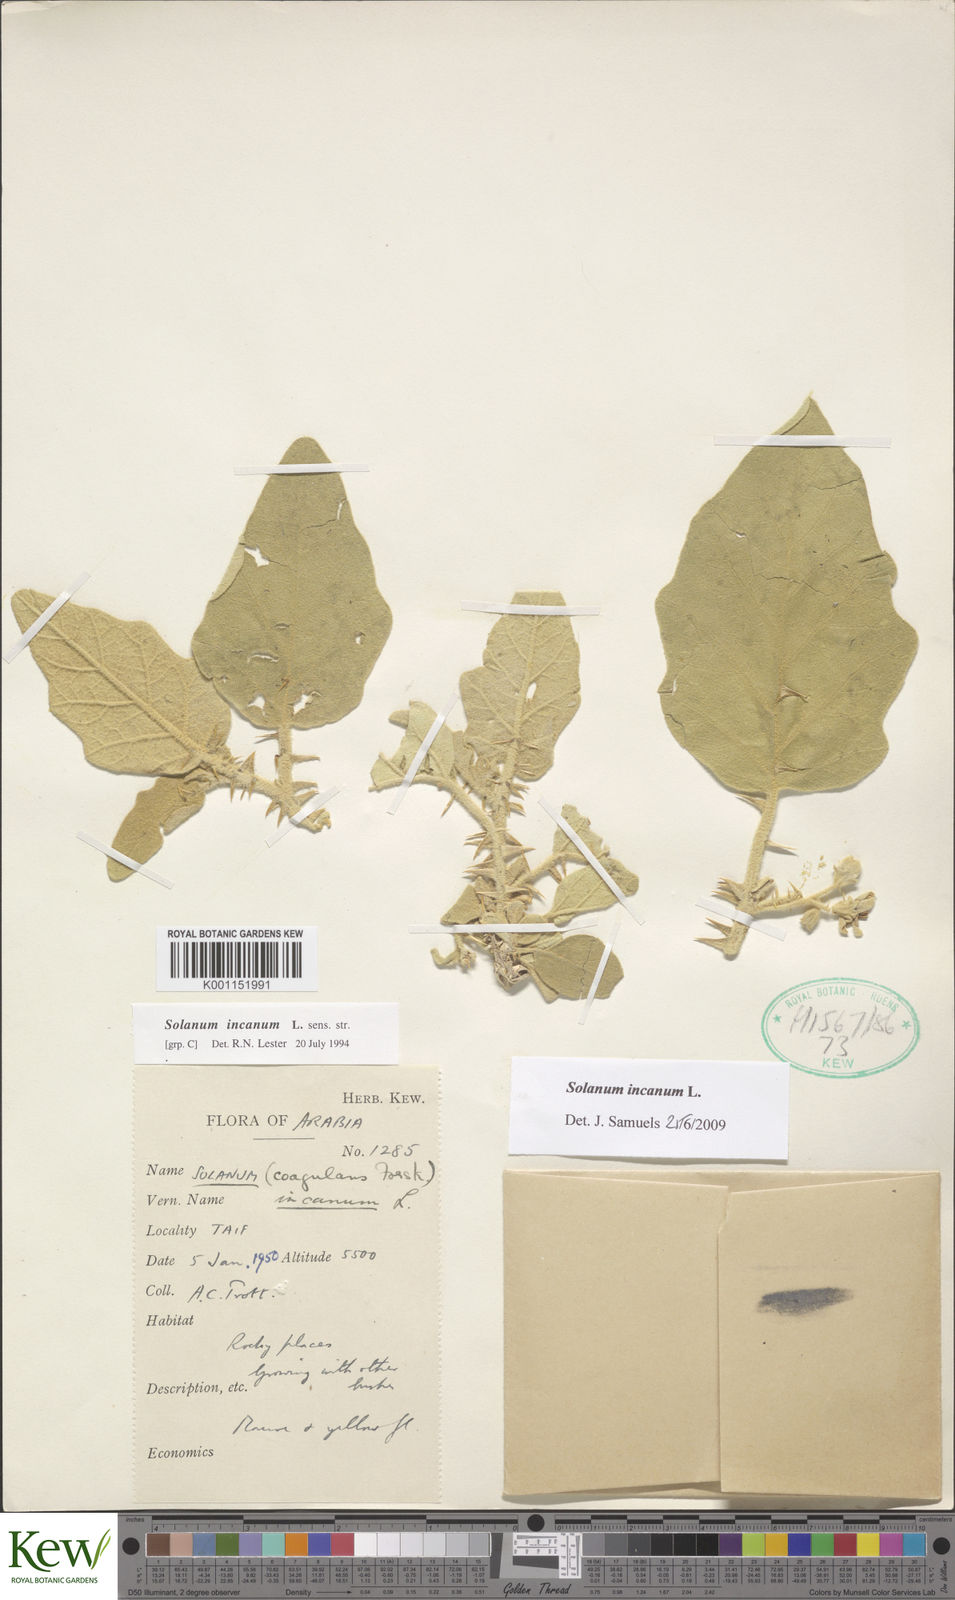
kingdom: Plantae
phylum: Tracheophyta
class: Magnoliopsida
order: Solanales
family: Solanaceae
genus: Solanum
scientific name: Solanum incanum
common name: Bitter apple
